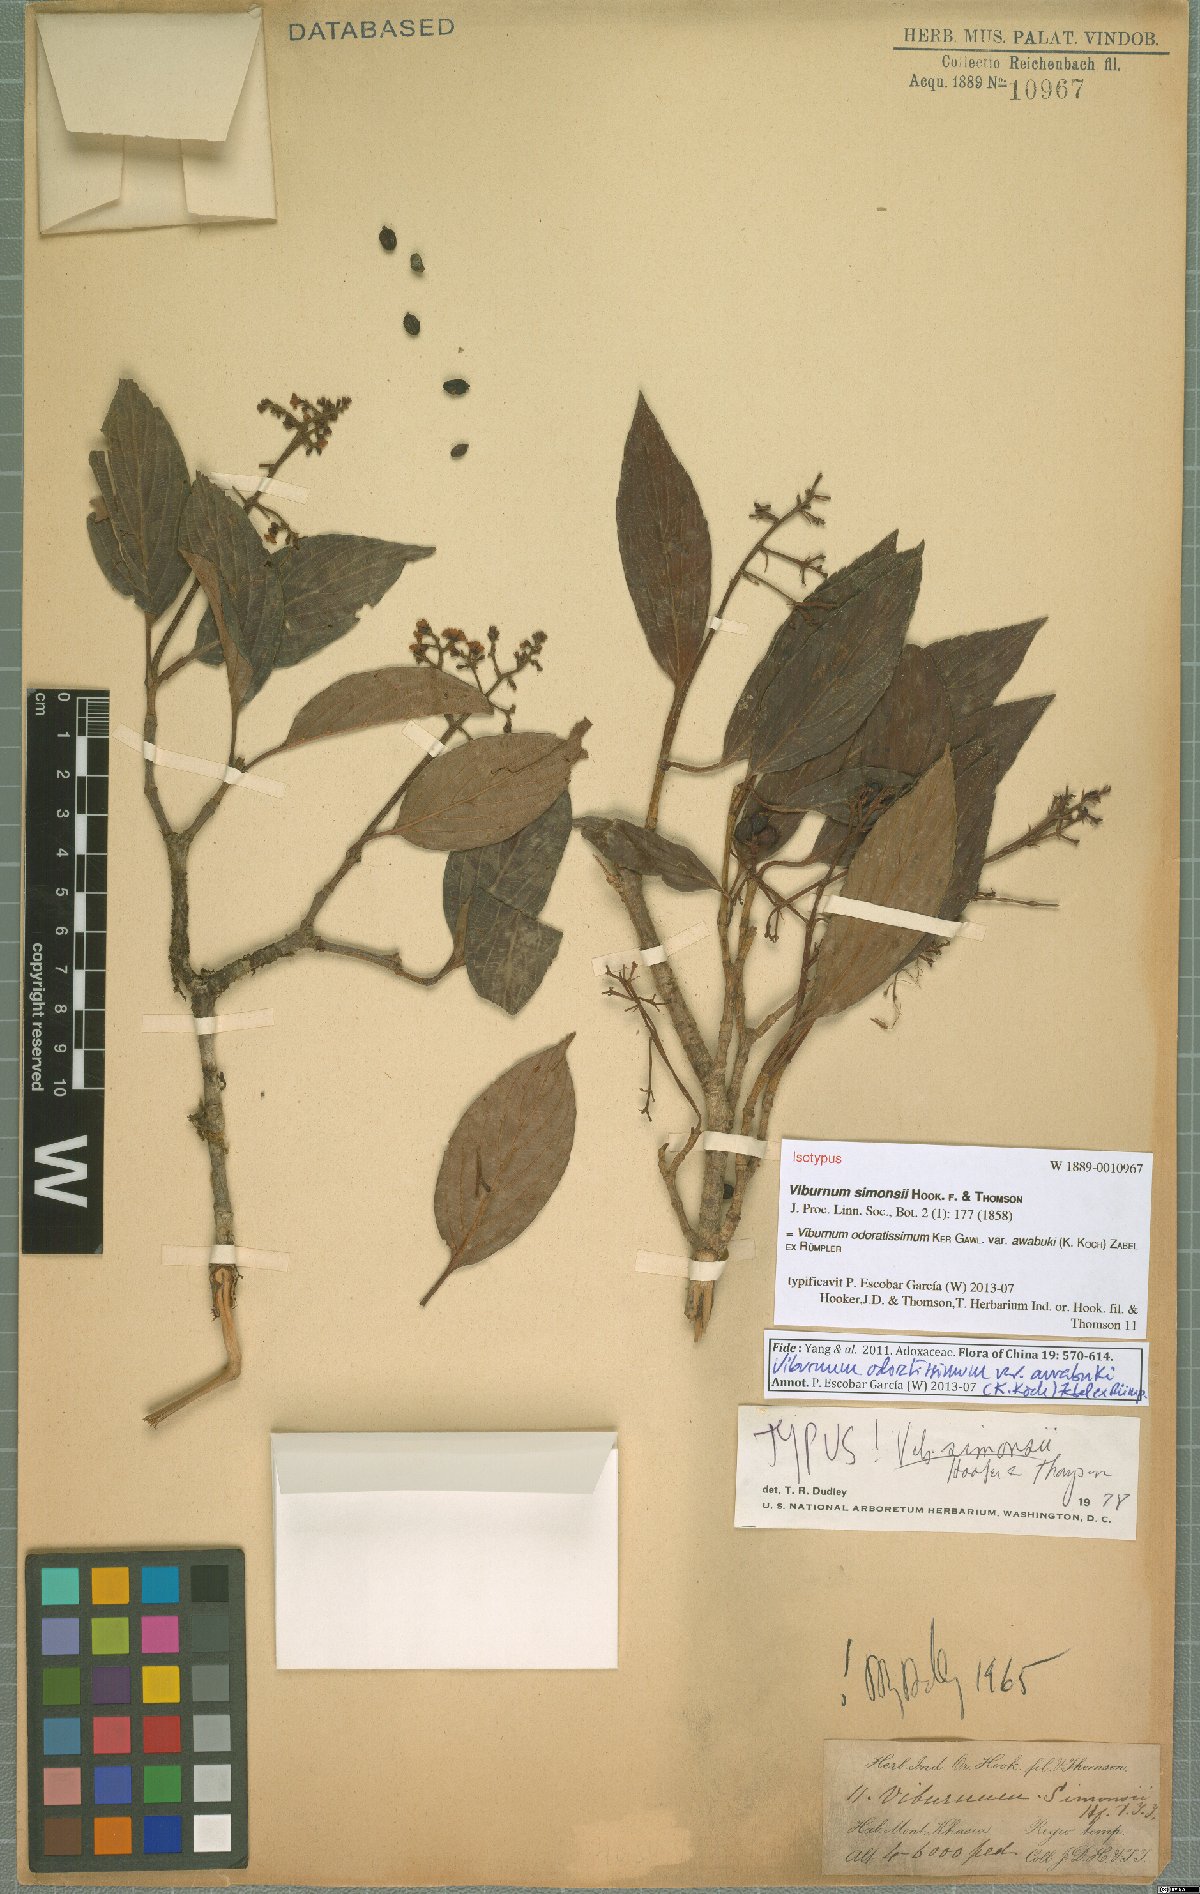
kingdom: Plantae
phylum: Tracheophyta
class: Magnoliopsida
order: Dipsacales
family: Viburnaceae
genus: Viburnum
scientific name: Viburnum odoratissimum
